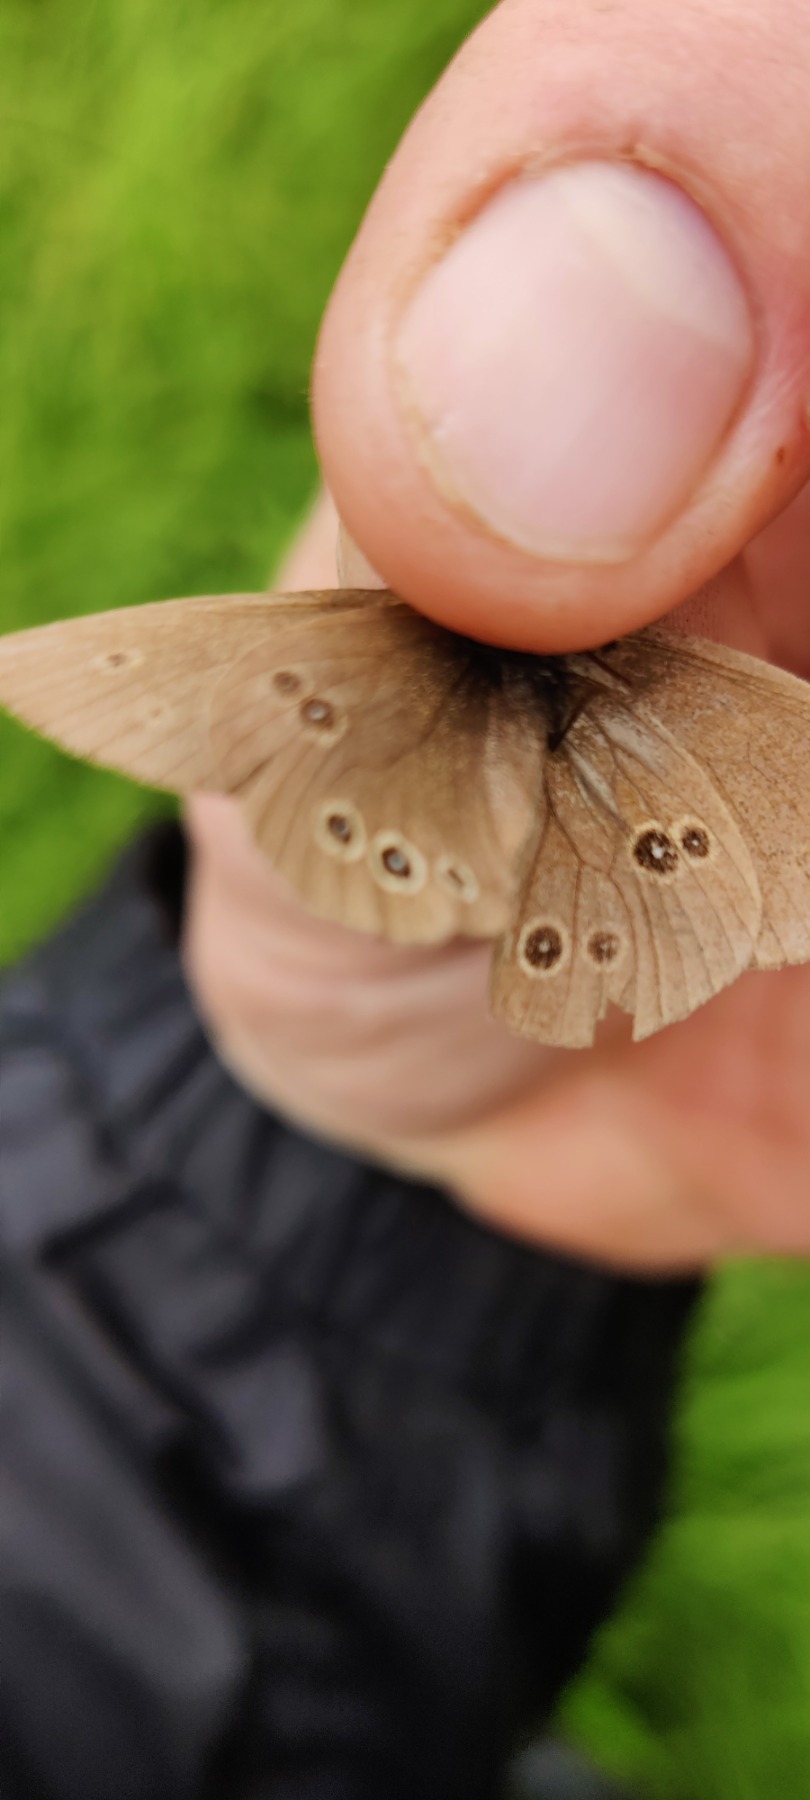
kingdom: Animalia
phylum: Arthropoda
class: Insecta
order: Lepidoptera
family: Nymphalidae
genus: Aphantopus
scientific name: Aphantopus hyperantus
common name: Engrandøje
